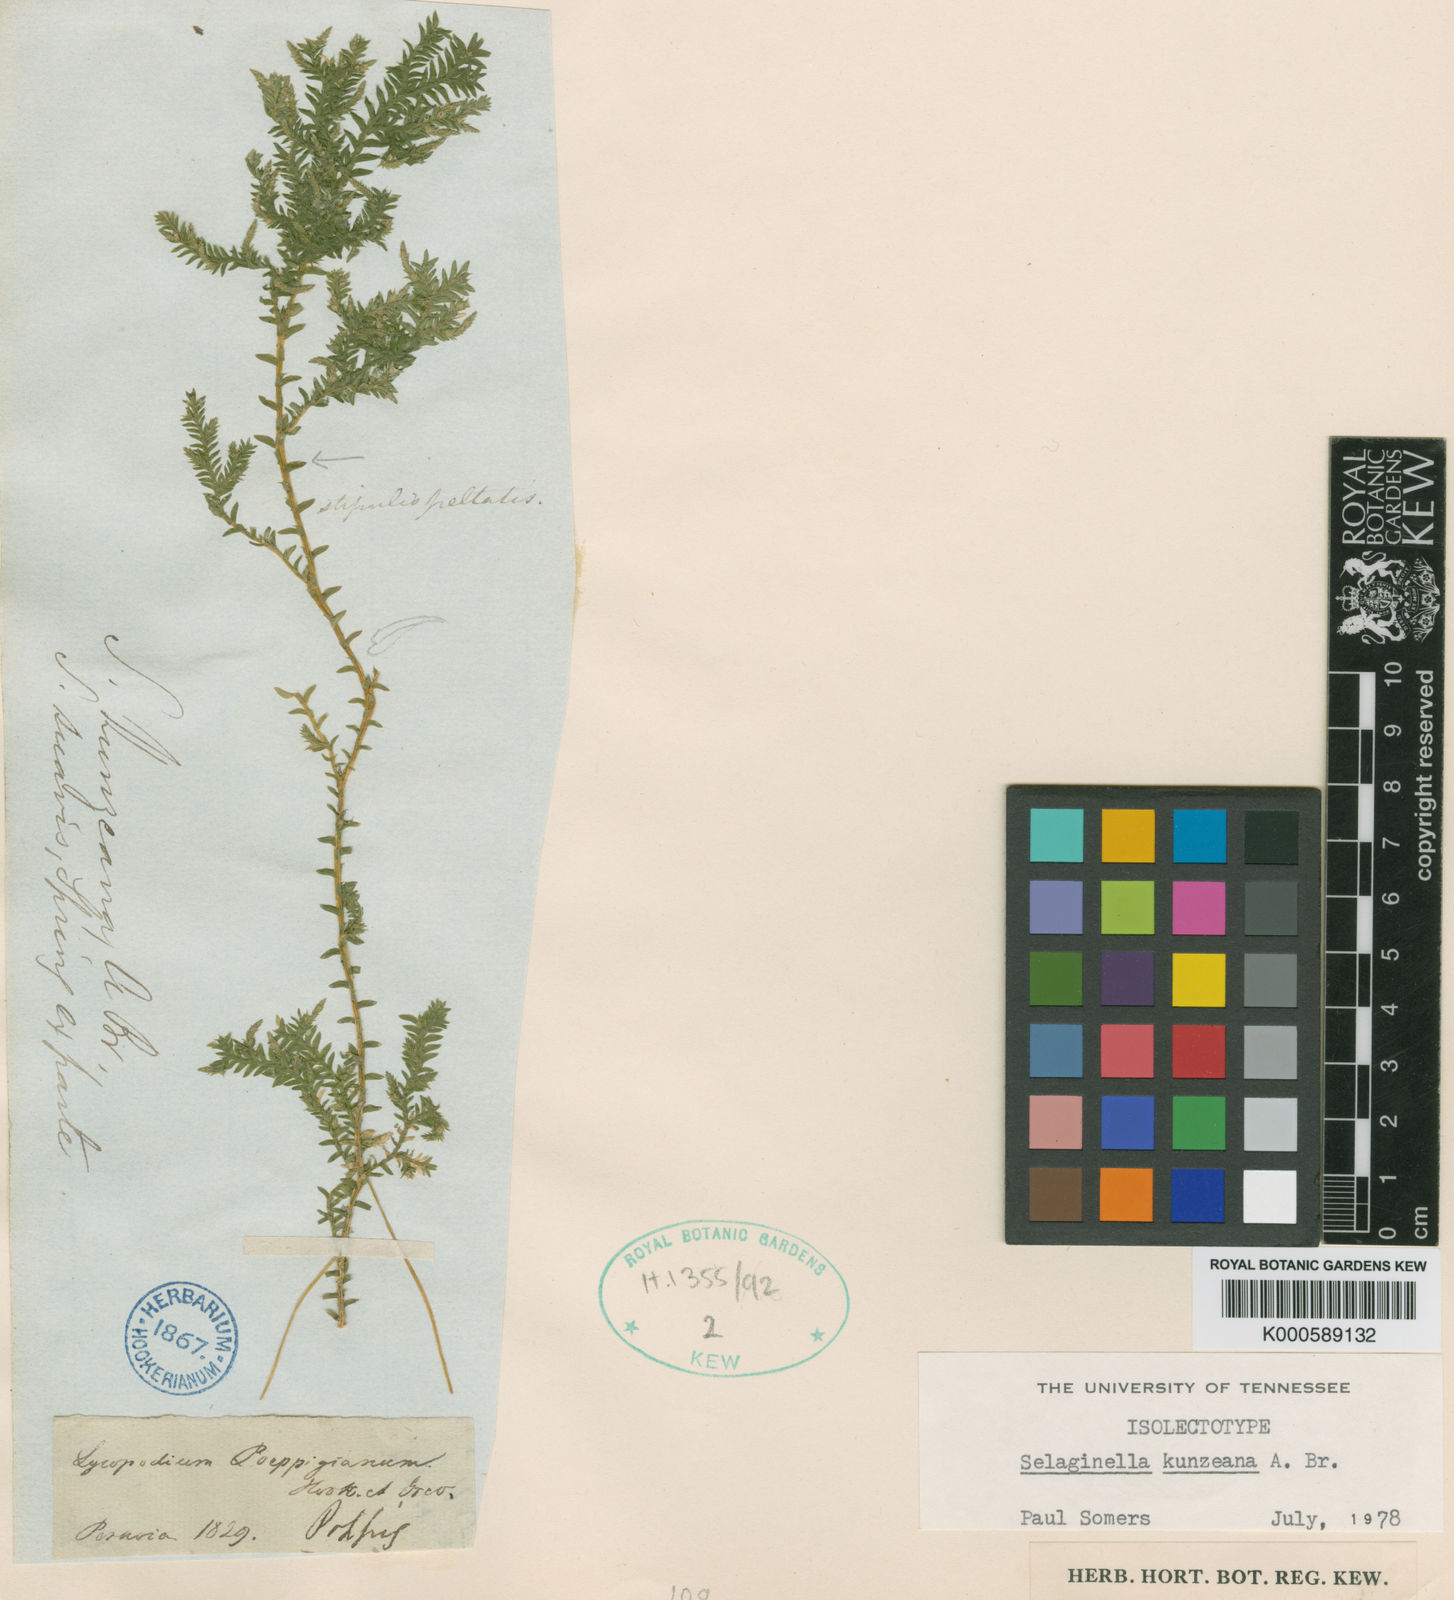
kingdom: Plantae
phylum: Tracheophyta
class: Lycopodiopsida
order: Selaginellales
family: Selaginellaceae
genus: Selaginella
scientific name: Selaginella
